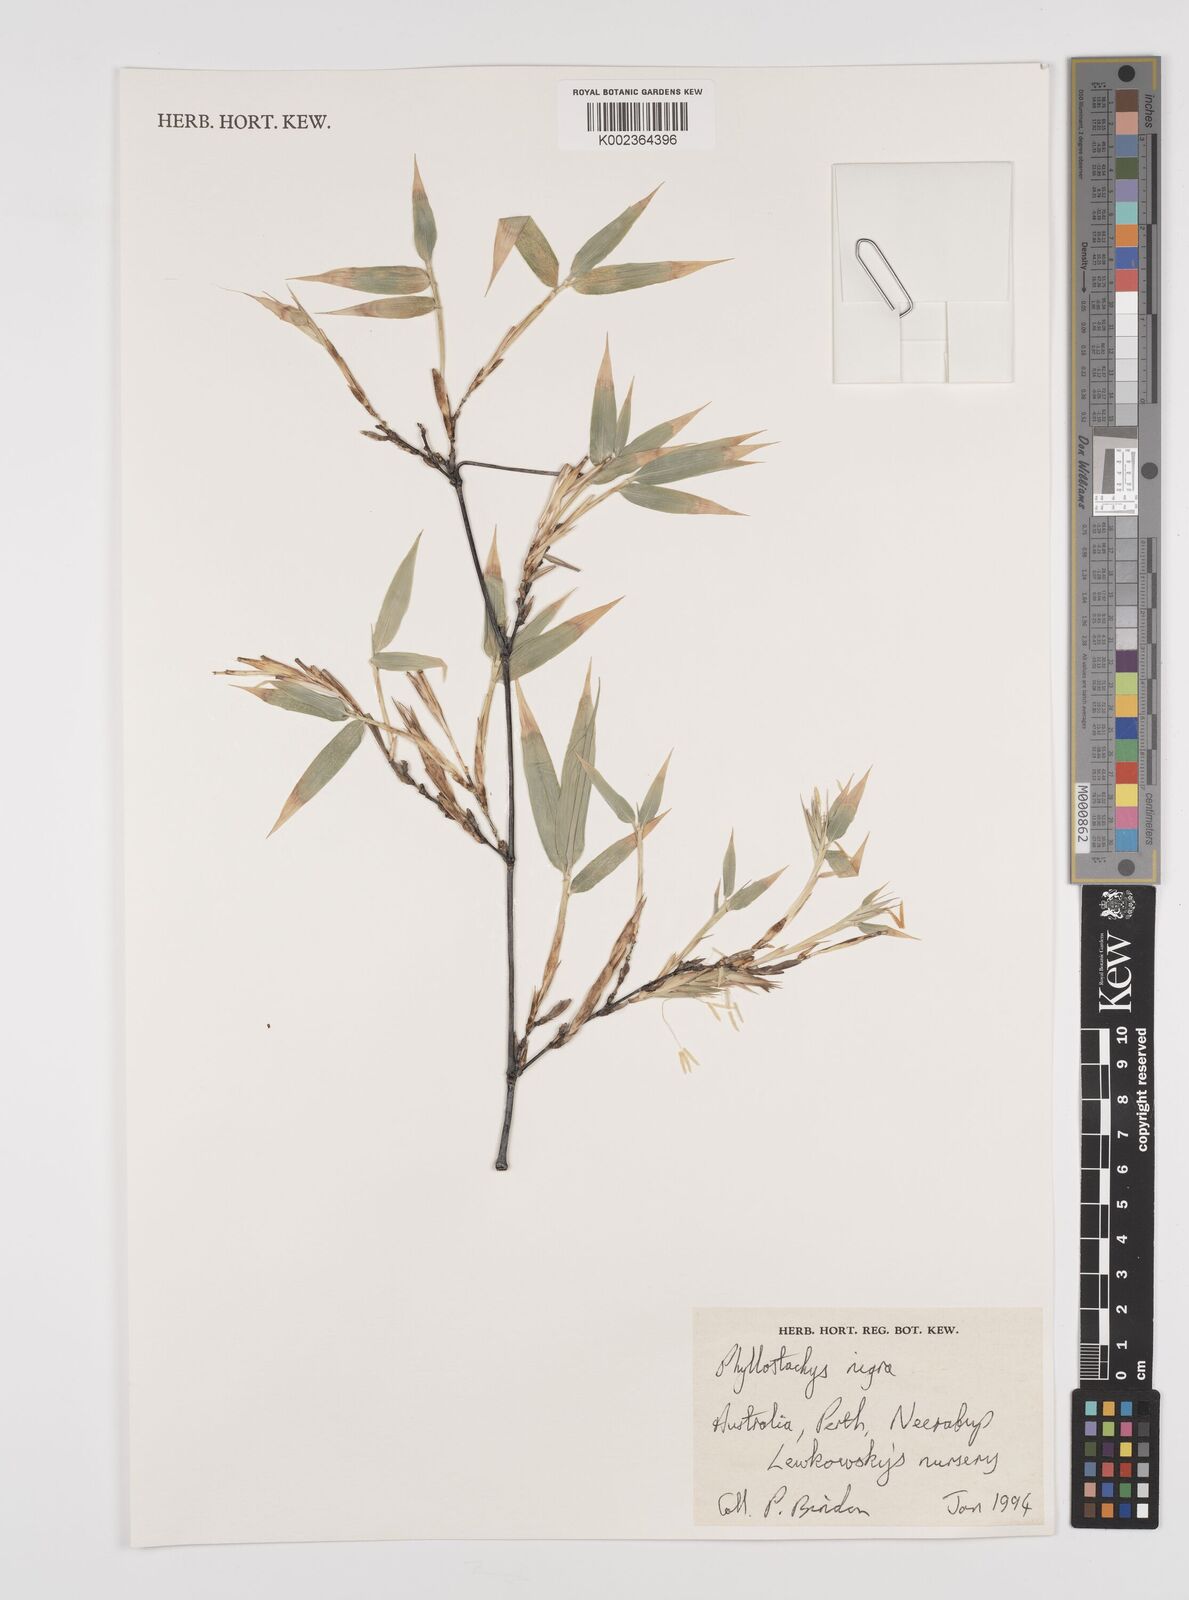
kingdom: Plantae
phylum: Tracheophyta
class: Liliopsida
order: Poales
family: Poaceae
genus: Phyllostachys
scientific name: Phyllostachys nigra
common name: Black bamboo
